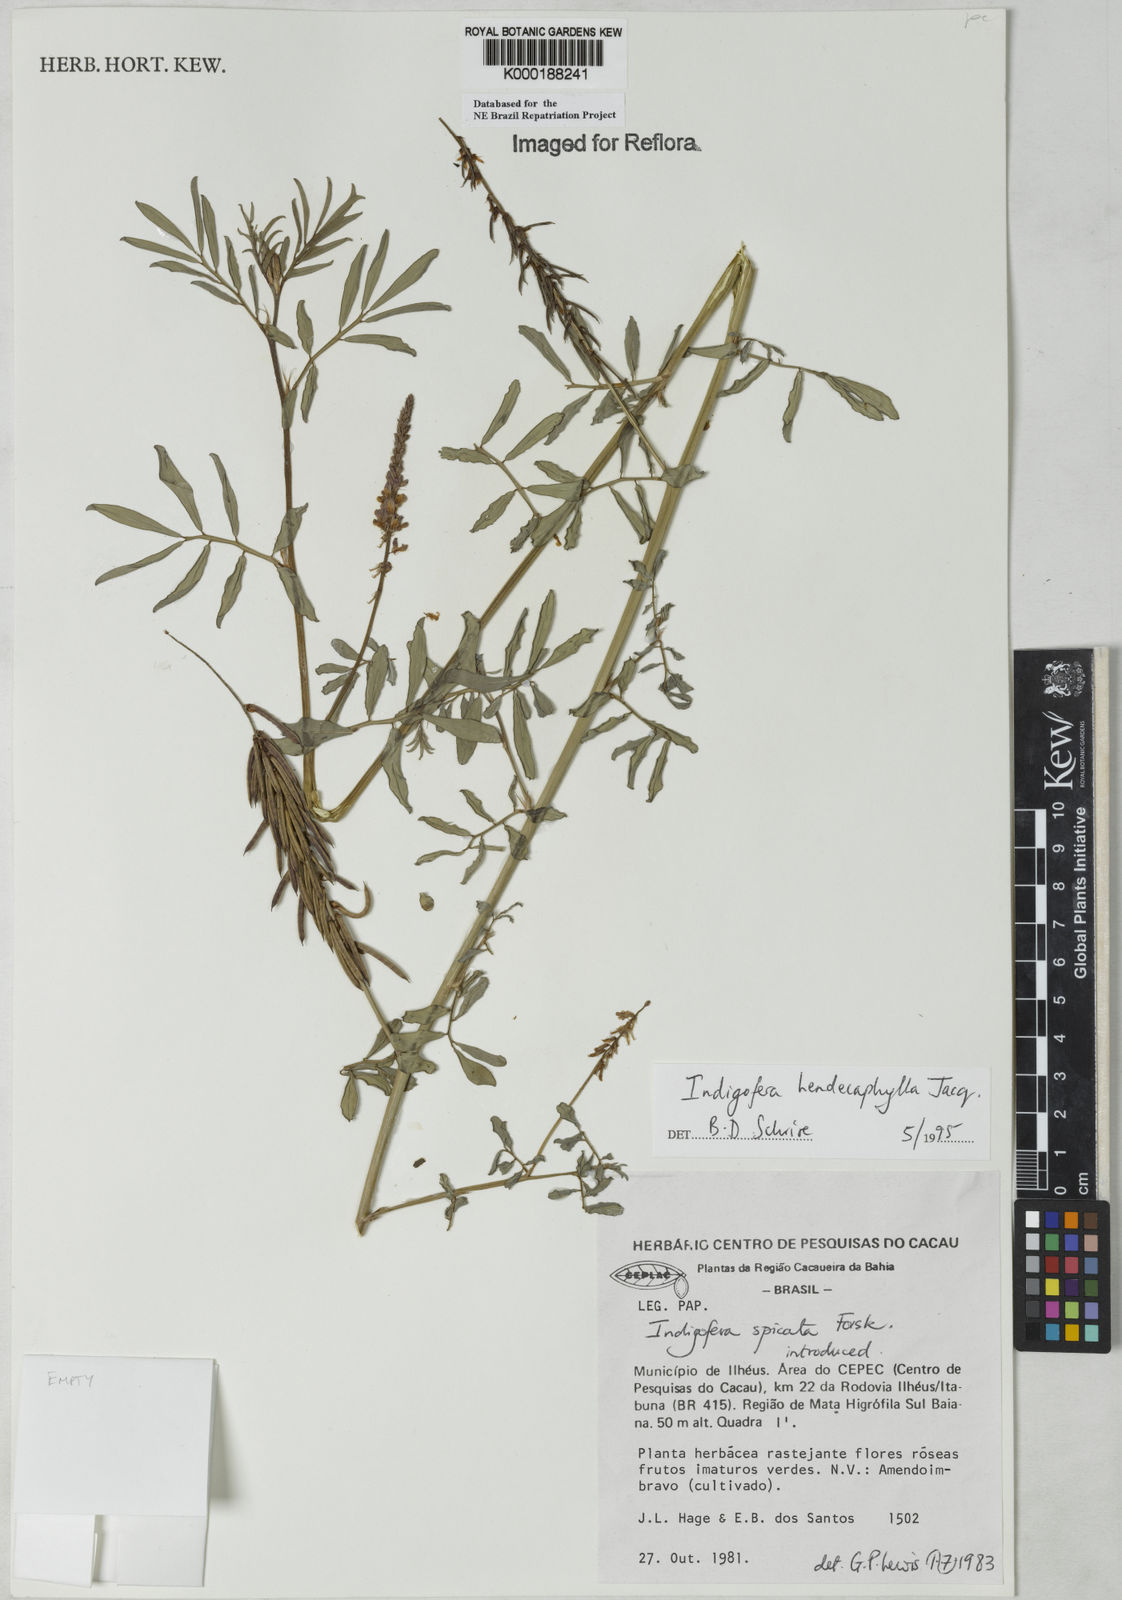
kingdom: Plantae
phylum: Tracheophyta
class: Magnoliopsida
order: Fabales
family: Fabaceae
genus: Indigofera
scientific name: Indigofera hendecaphylla
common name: Trailing indigo
